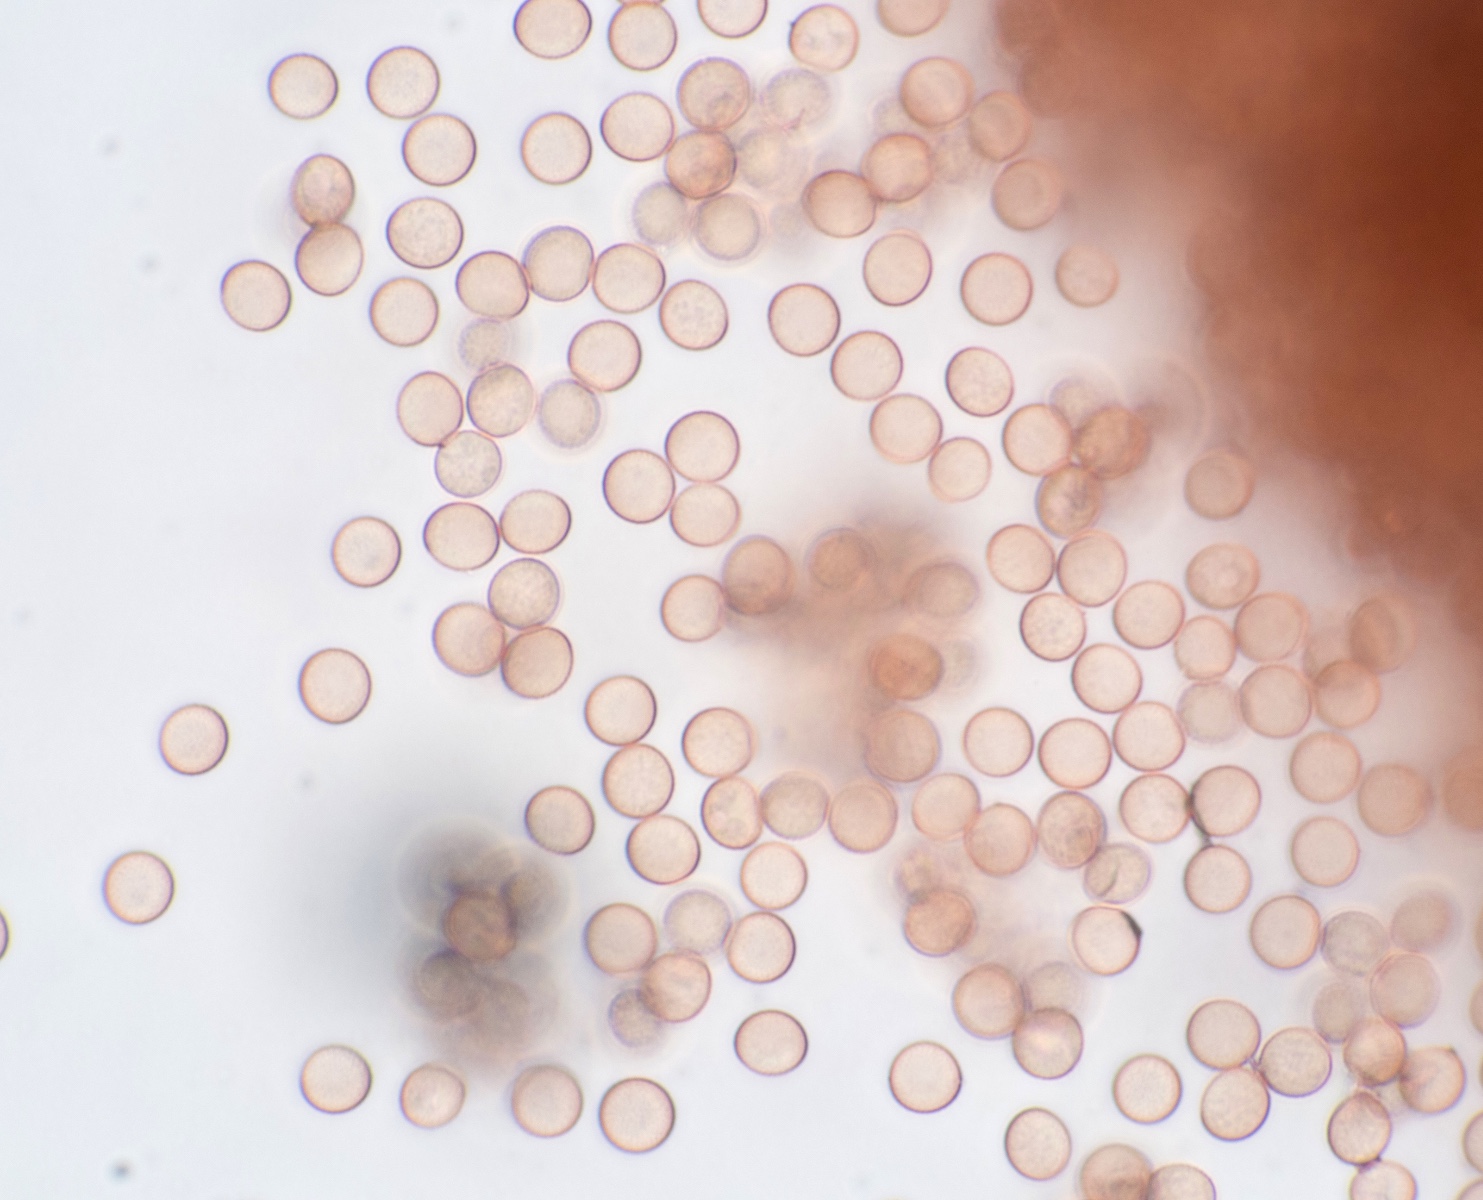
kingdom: Protozoa
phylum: Mycetozoa
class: Myxomycetes
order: Stemonitidales
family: Stemonitidaceae
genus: Stemonitis
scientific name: Stemonitis axifera
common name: rødbrun støvkølle
